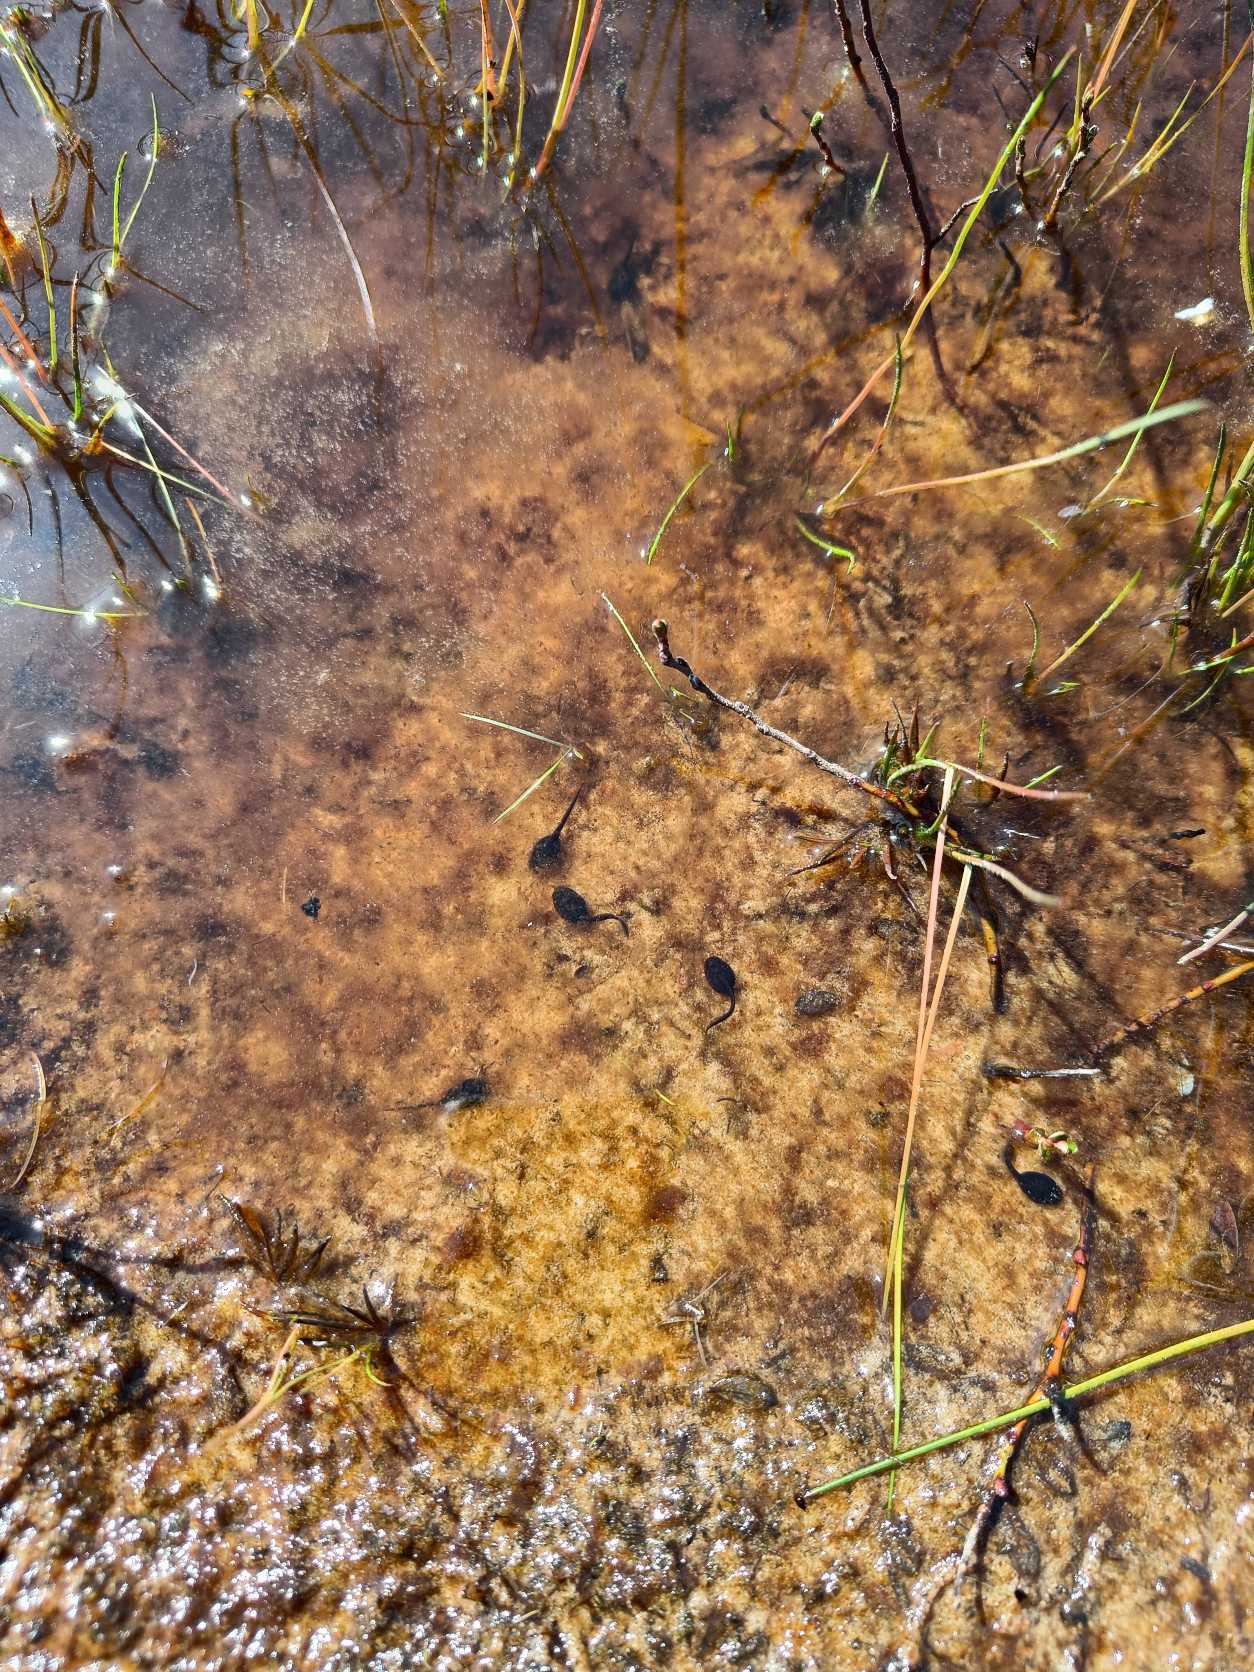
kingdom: Animalia
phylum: Chordata
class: Amphibia
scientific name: Amphibia
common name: Padder
